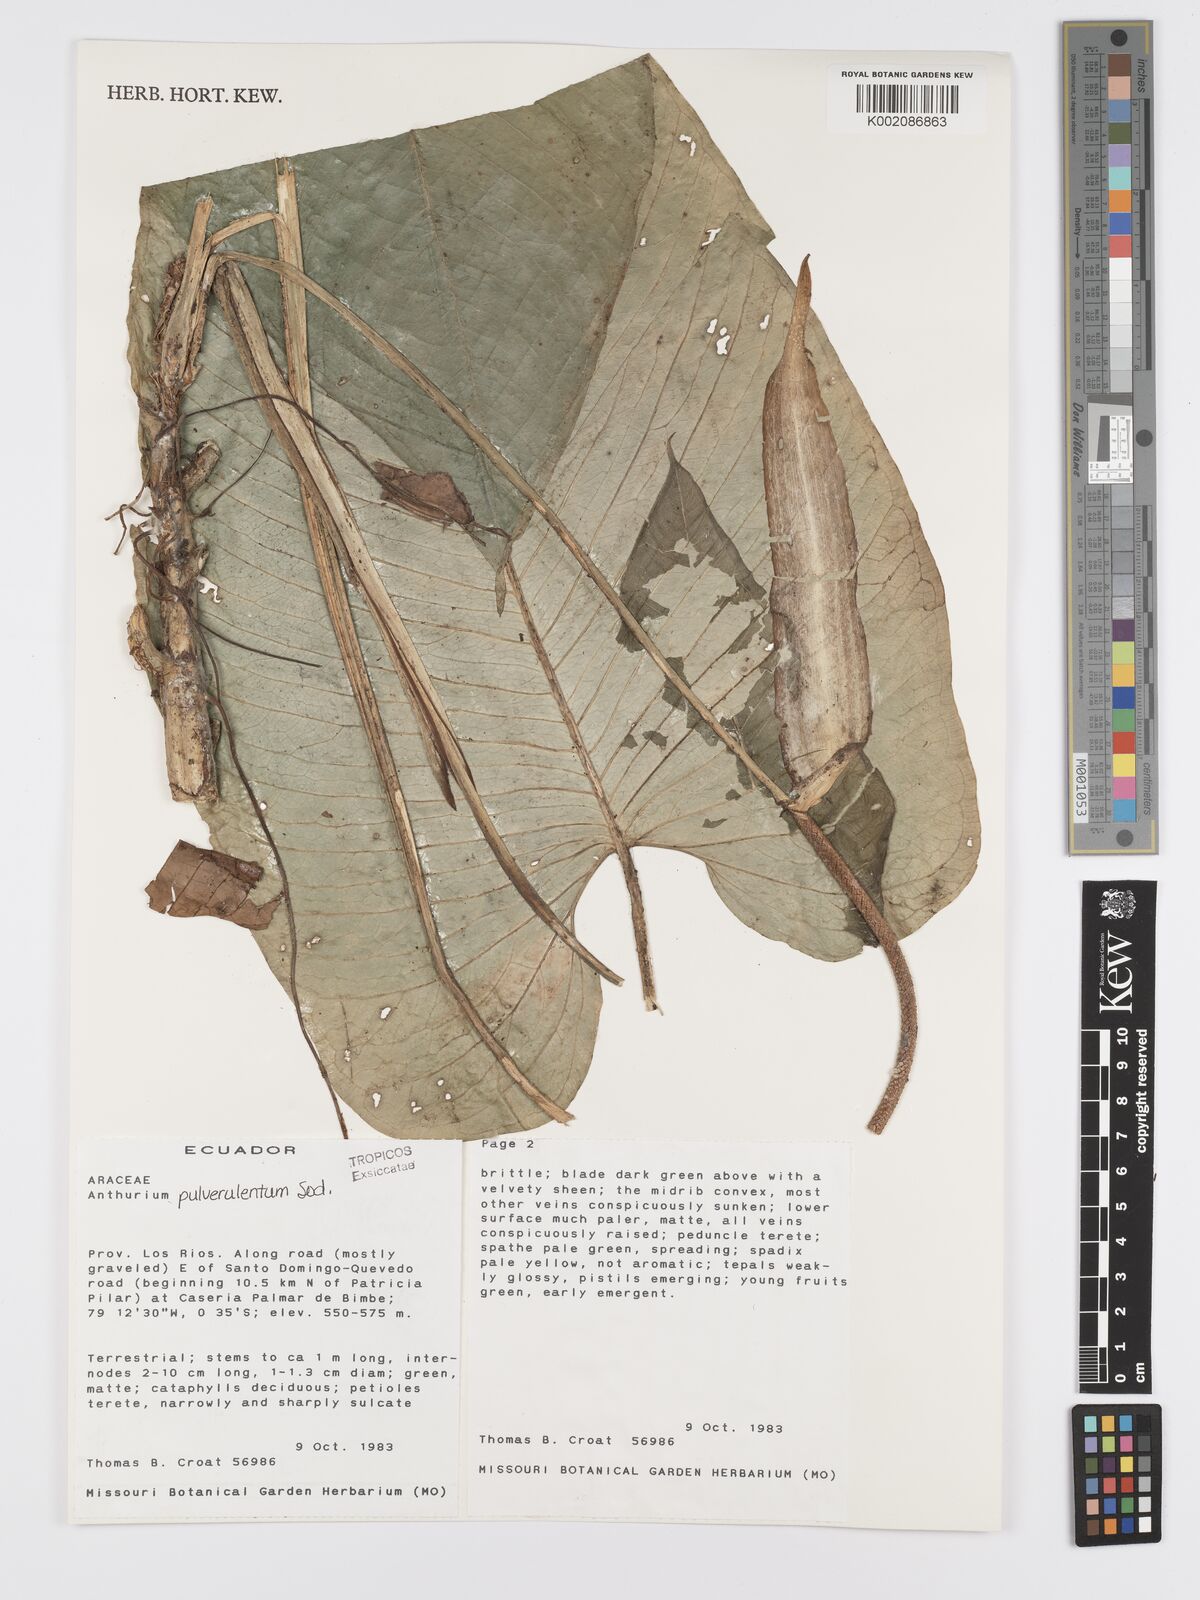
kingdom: Plantae
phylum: Tracheophyta
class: Liliopsida
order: Alismatales
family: Araceae
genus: Anthurium
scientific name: Anthurium pulverulentum
